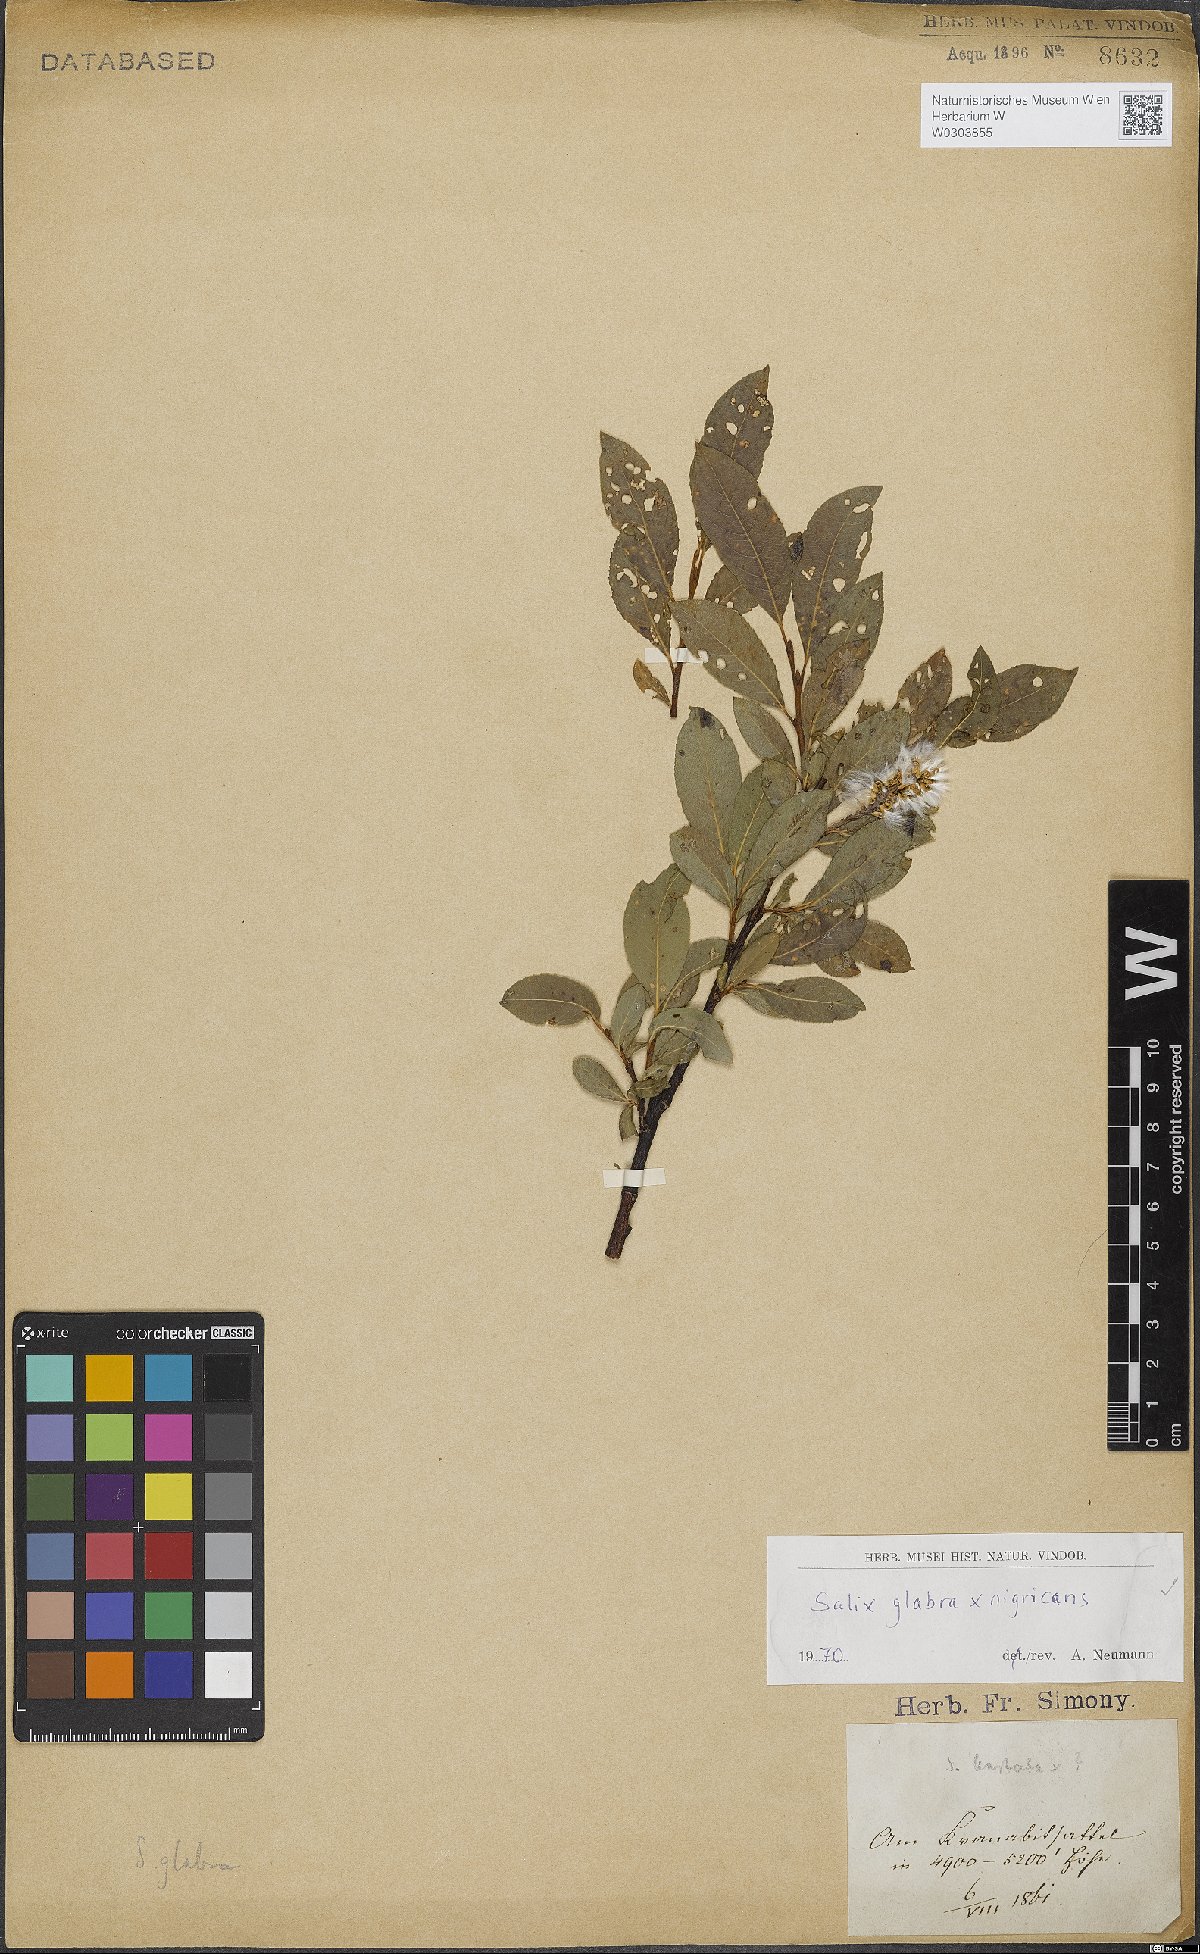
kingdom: Plantae
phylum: Tracheophyta
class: Magnoliopsida
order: Malpighiales
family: Salicaceae
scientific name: Salicaceae
